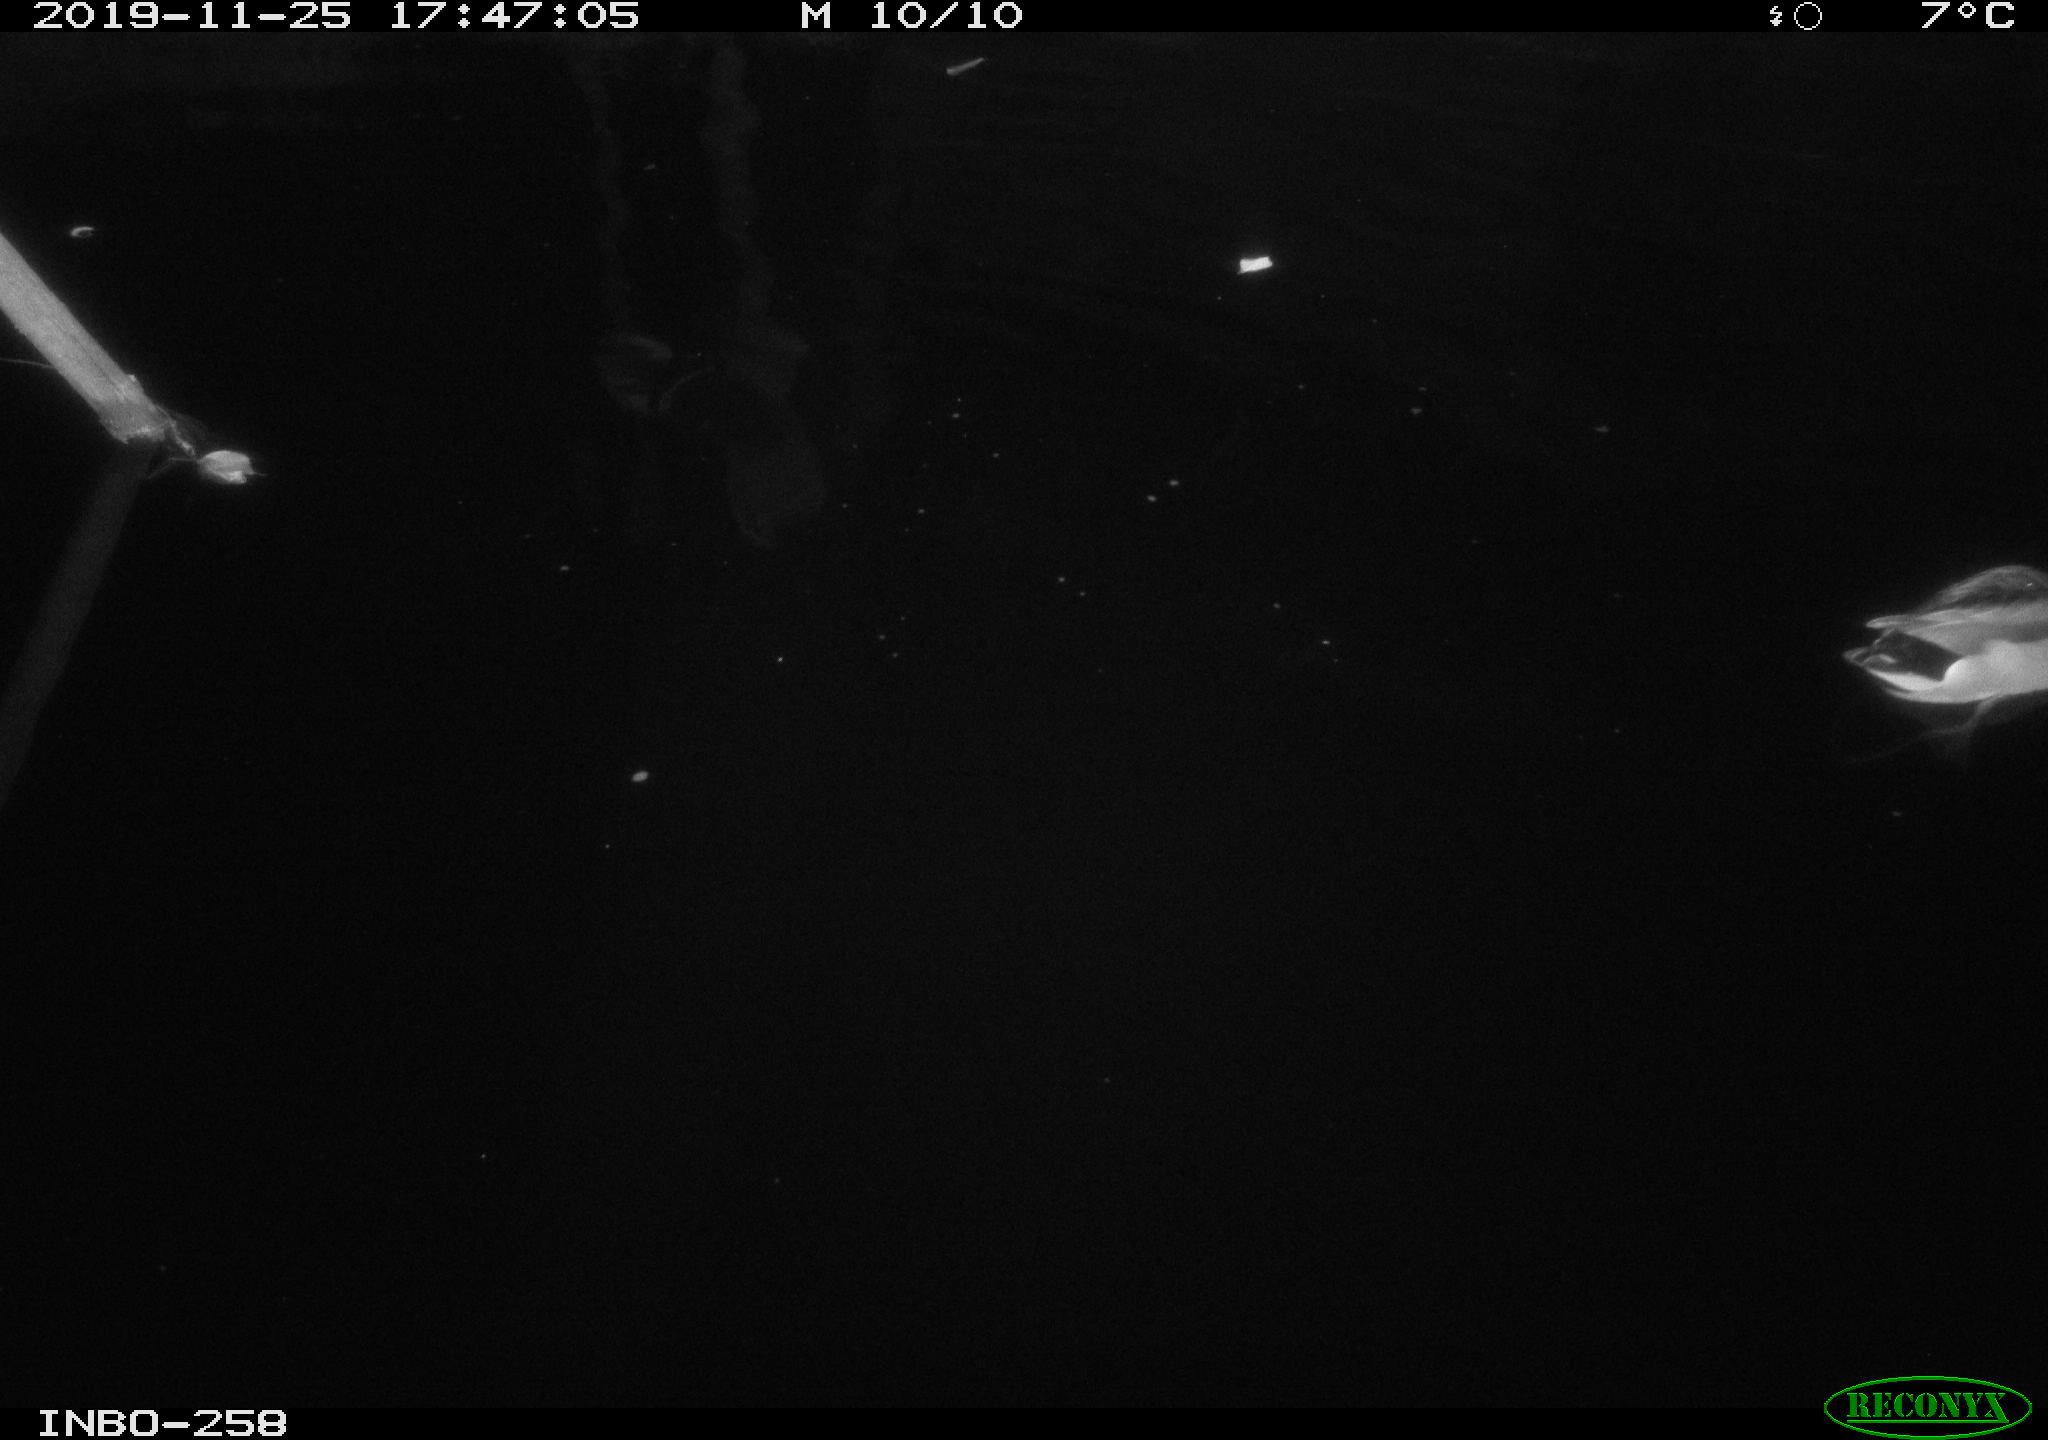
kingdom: Animalia
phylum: Chordata
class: Aves
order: Anseriformes
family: Anatidae
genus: Anas
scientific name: Anas platyrhynchos
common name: Mallard
